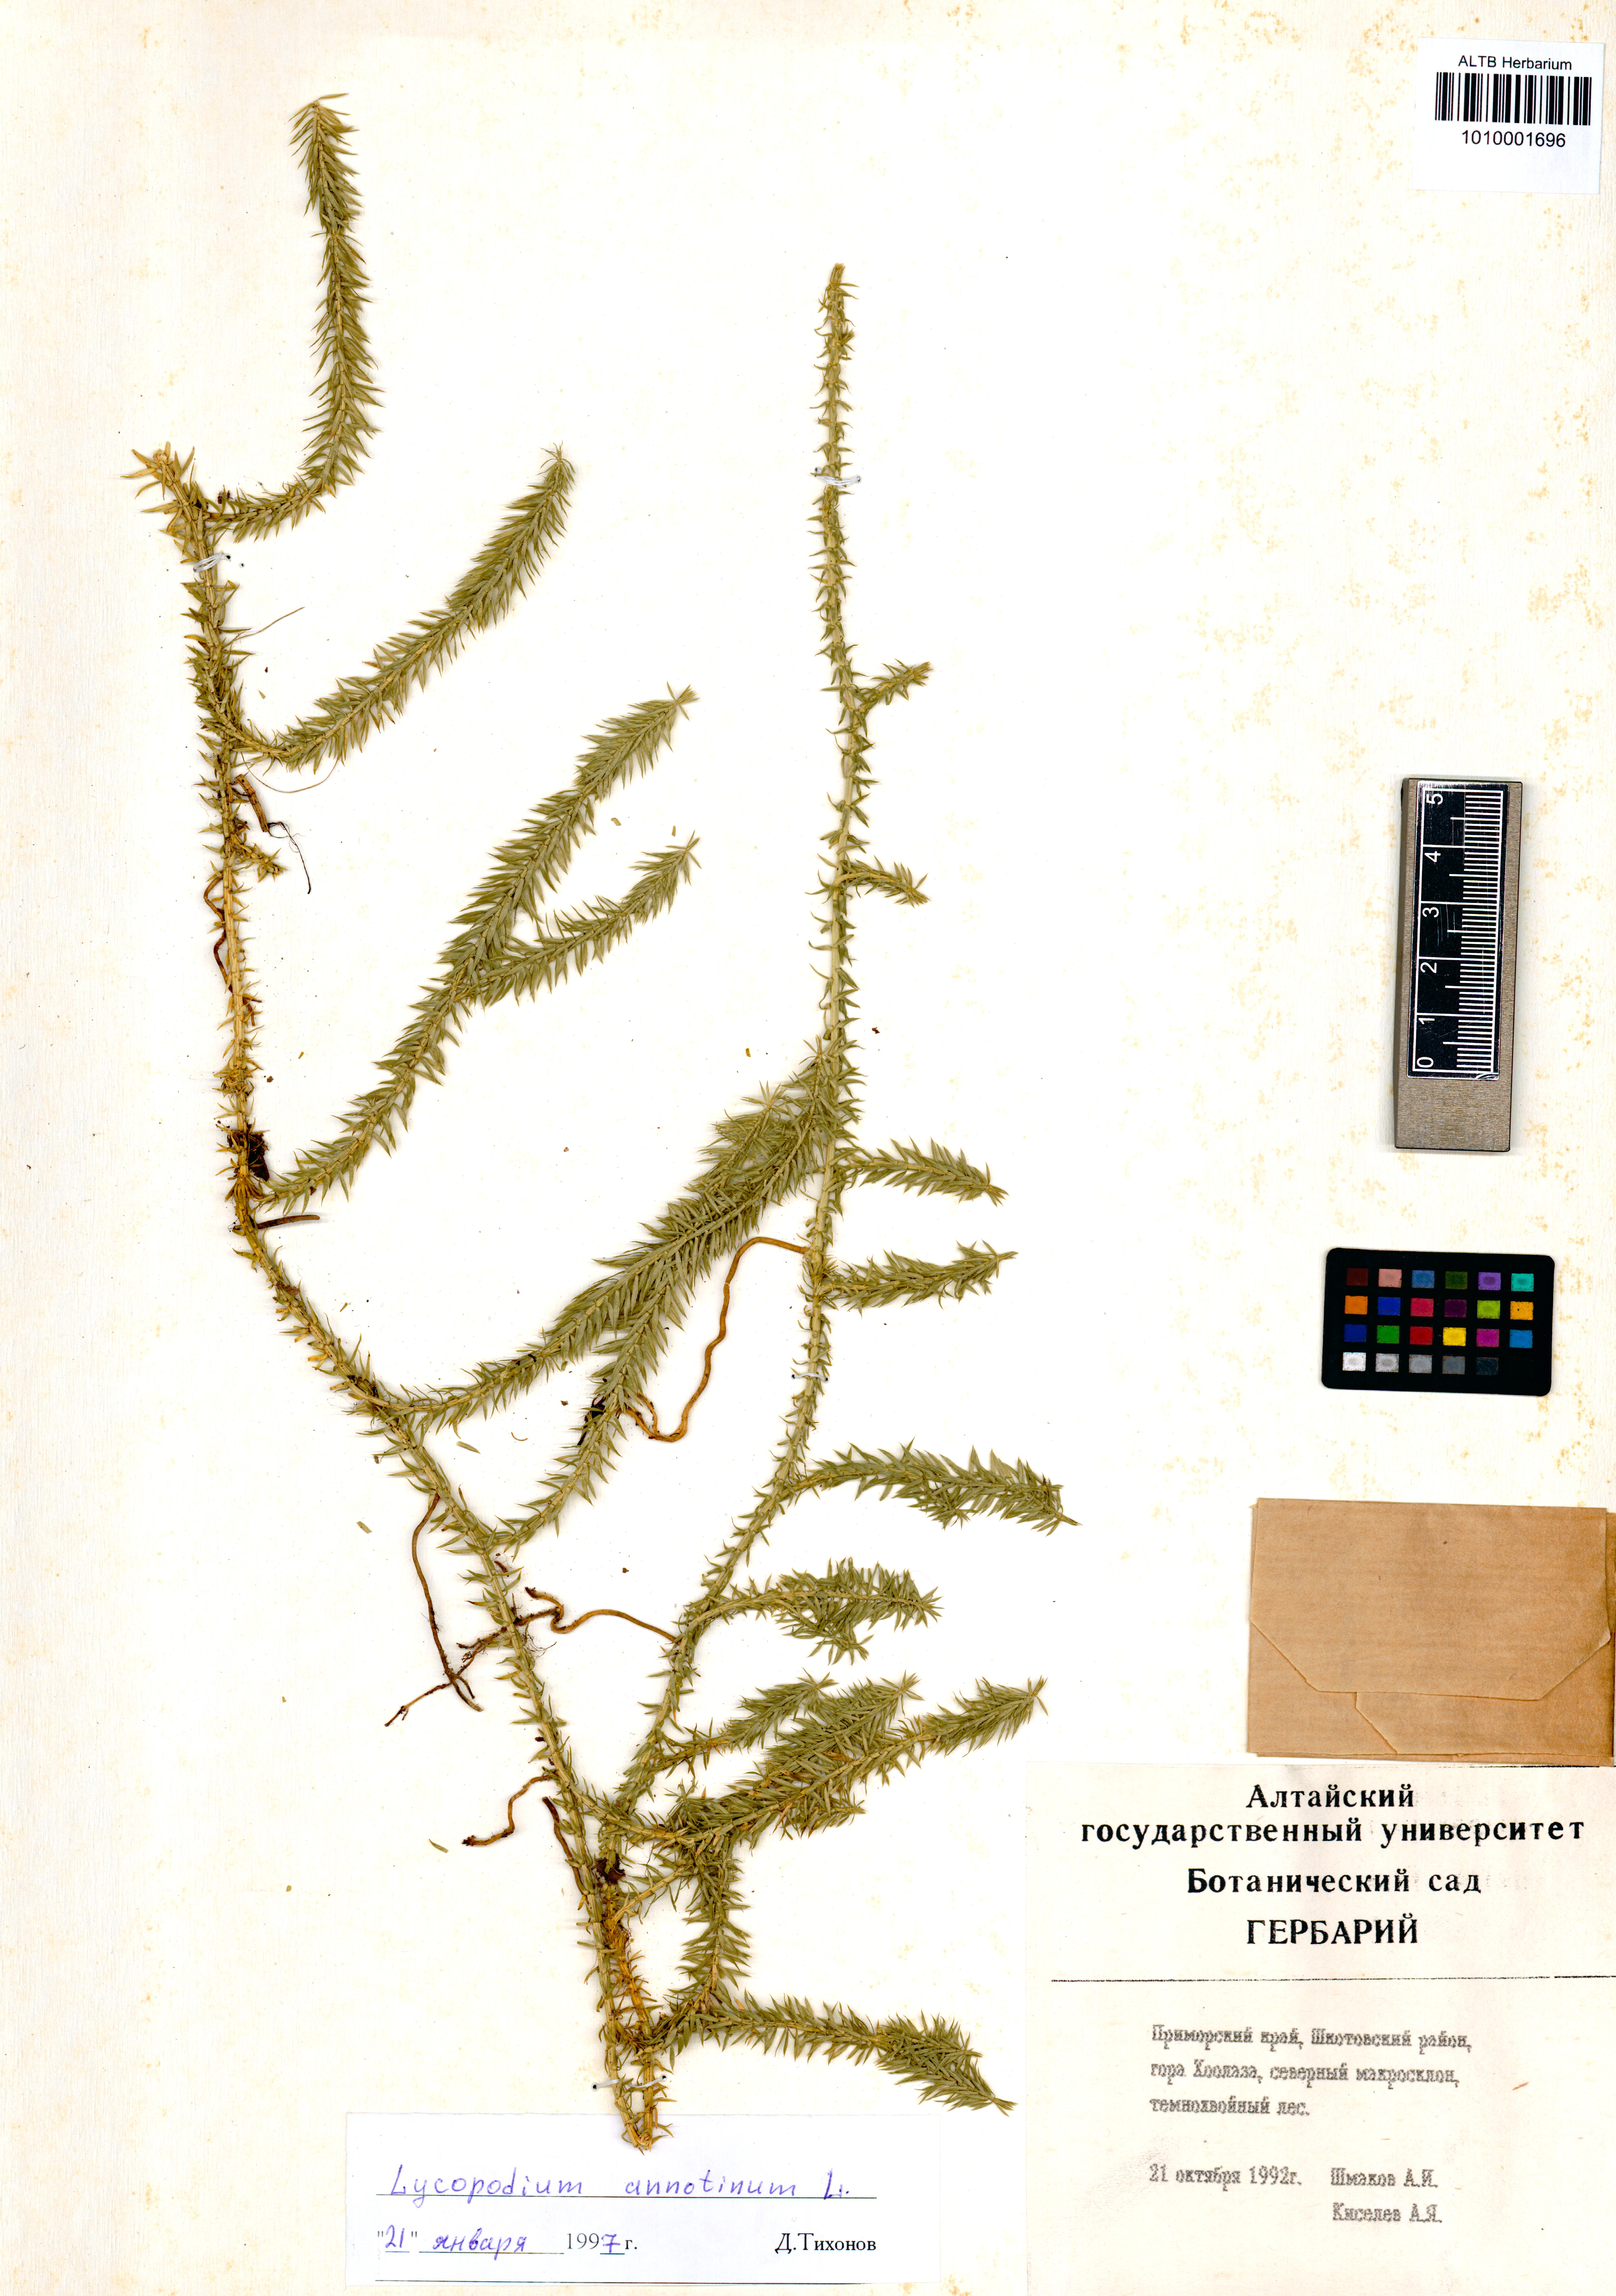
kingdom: Plantae
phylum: Tracheophyta
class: Lycopodiopsida
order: Lycopodiales
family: Lycopodiaceae
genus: Spinulum
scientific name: Spinulum annotinum
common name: Interrupted club-moss
